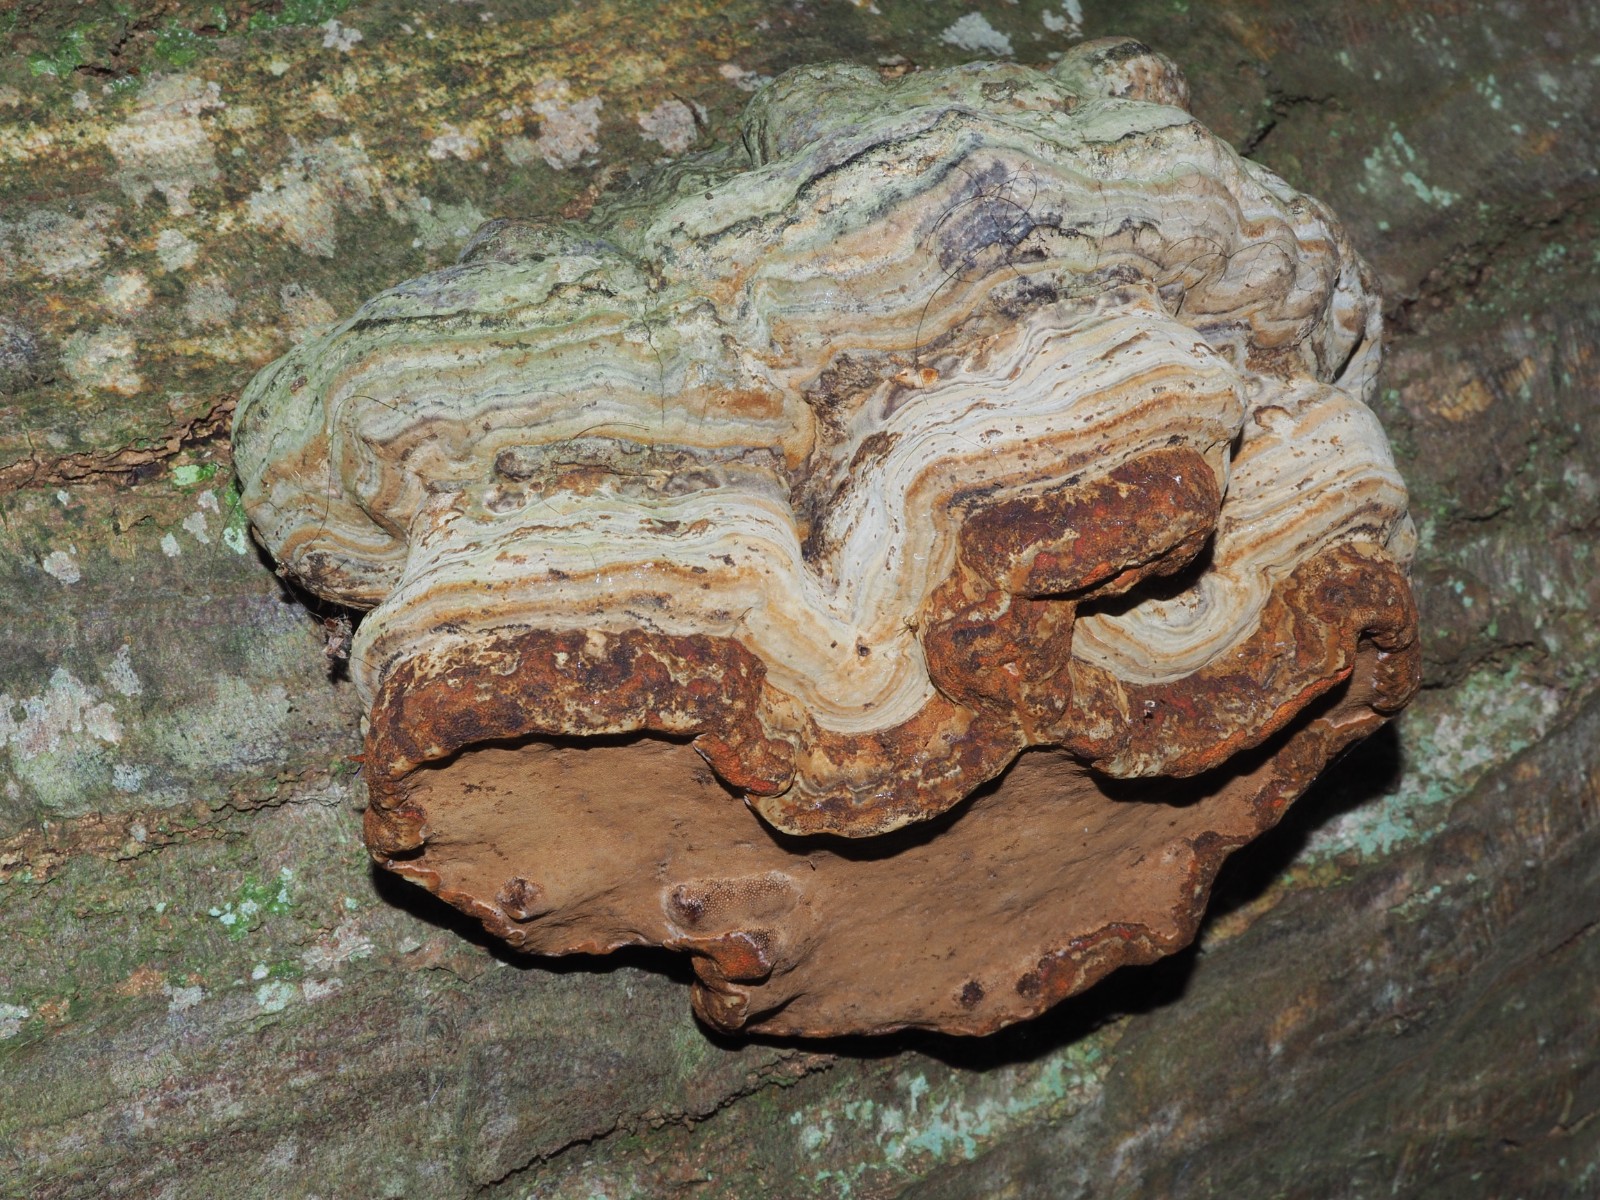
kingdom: Fungi
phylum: Basidiomycota
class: Agaricomycetes
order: Polyporales
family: Polyporaceae
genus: Fomes
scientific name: Fomes fomentarius
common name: tøndersvamp
